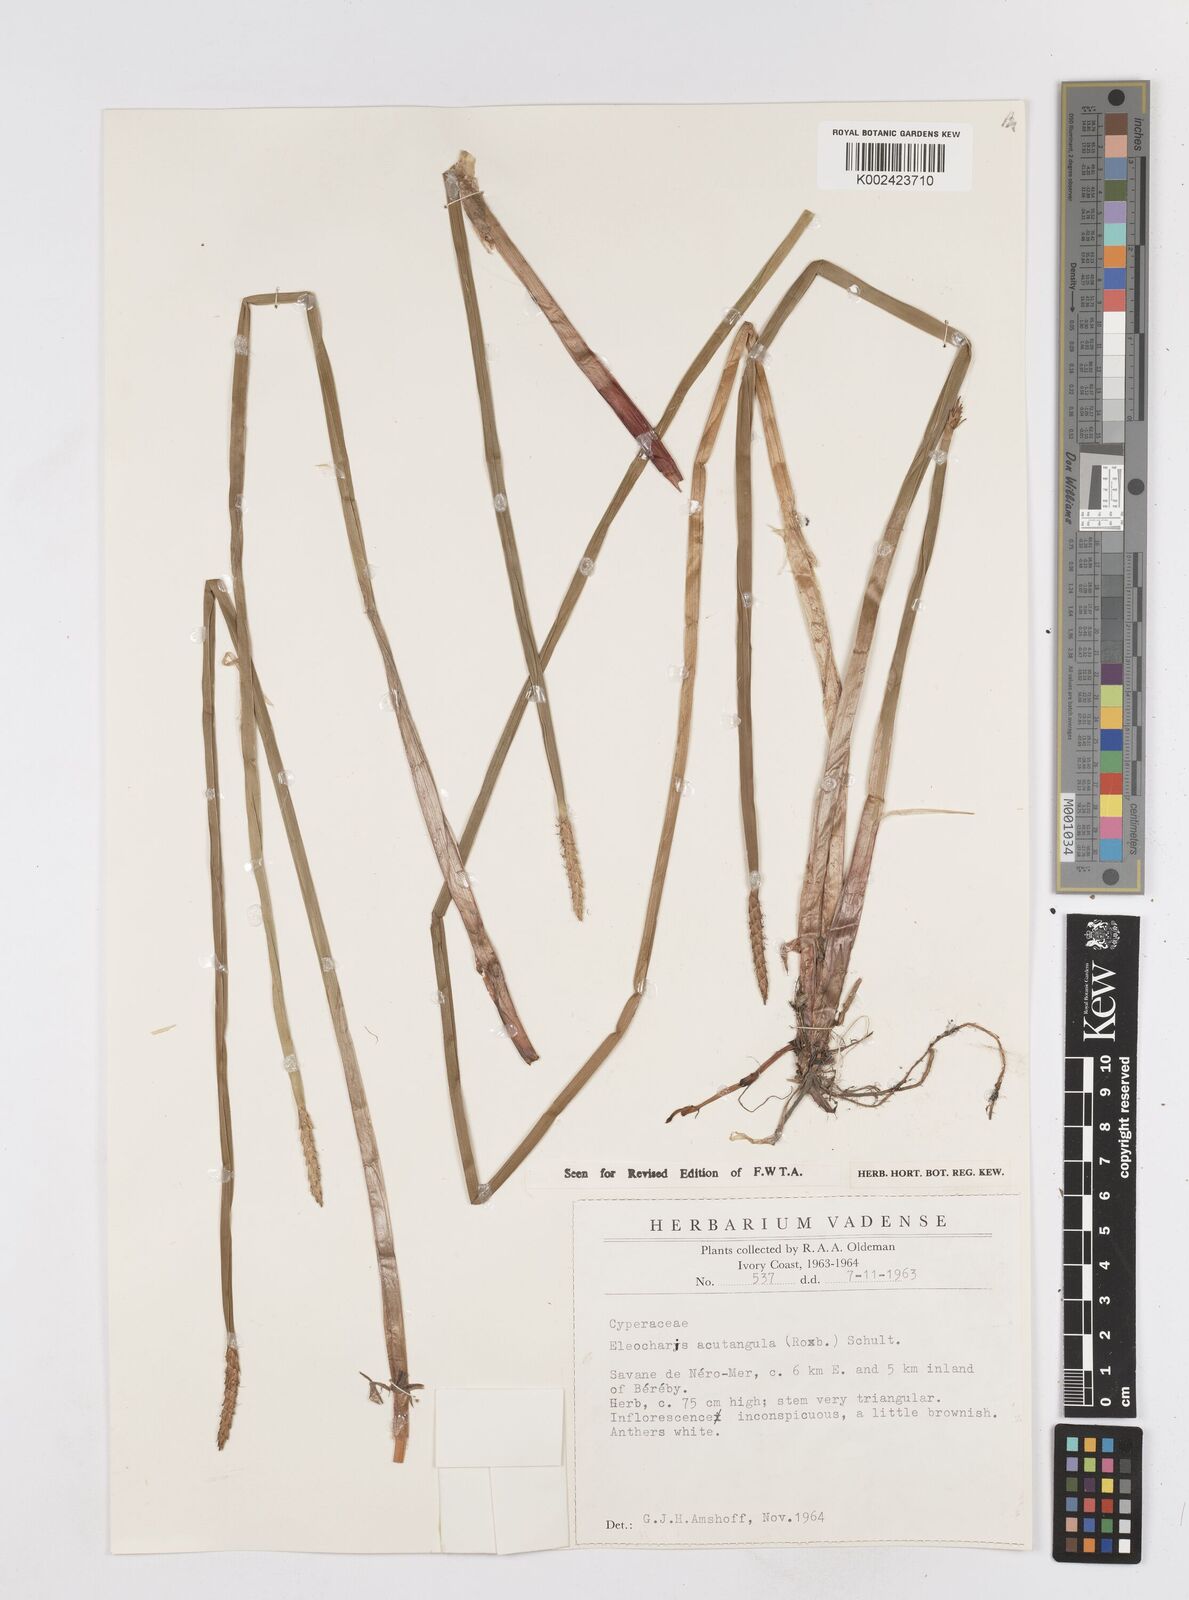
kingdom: Plantae
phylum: Tracheophyta
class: Liliopsida
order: Poales
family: Cyperaceae
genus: Eleocharis
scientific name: Eleocharis acutangula
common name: Acute spikerush
